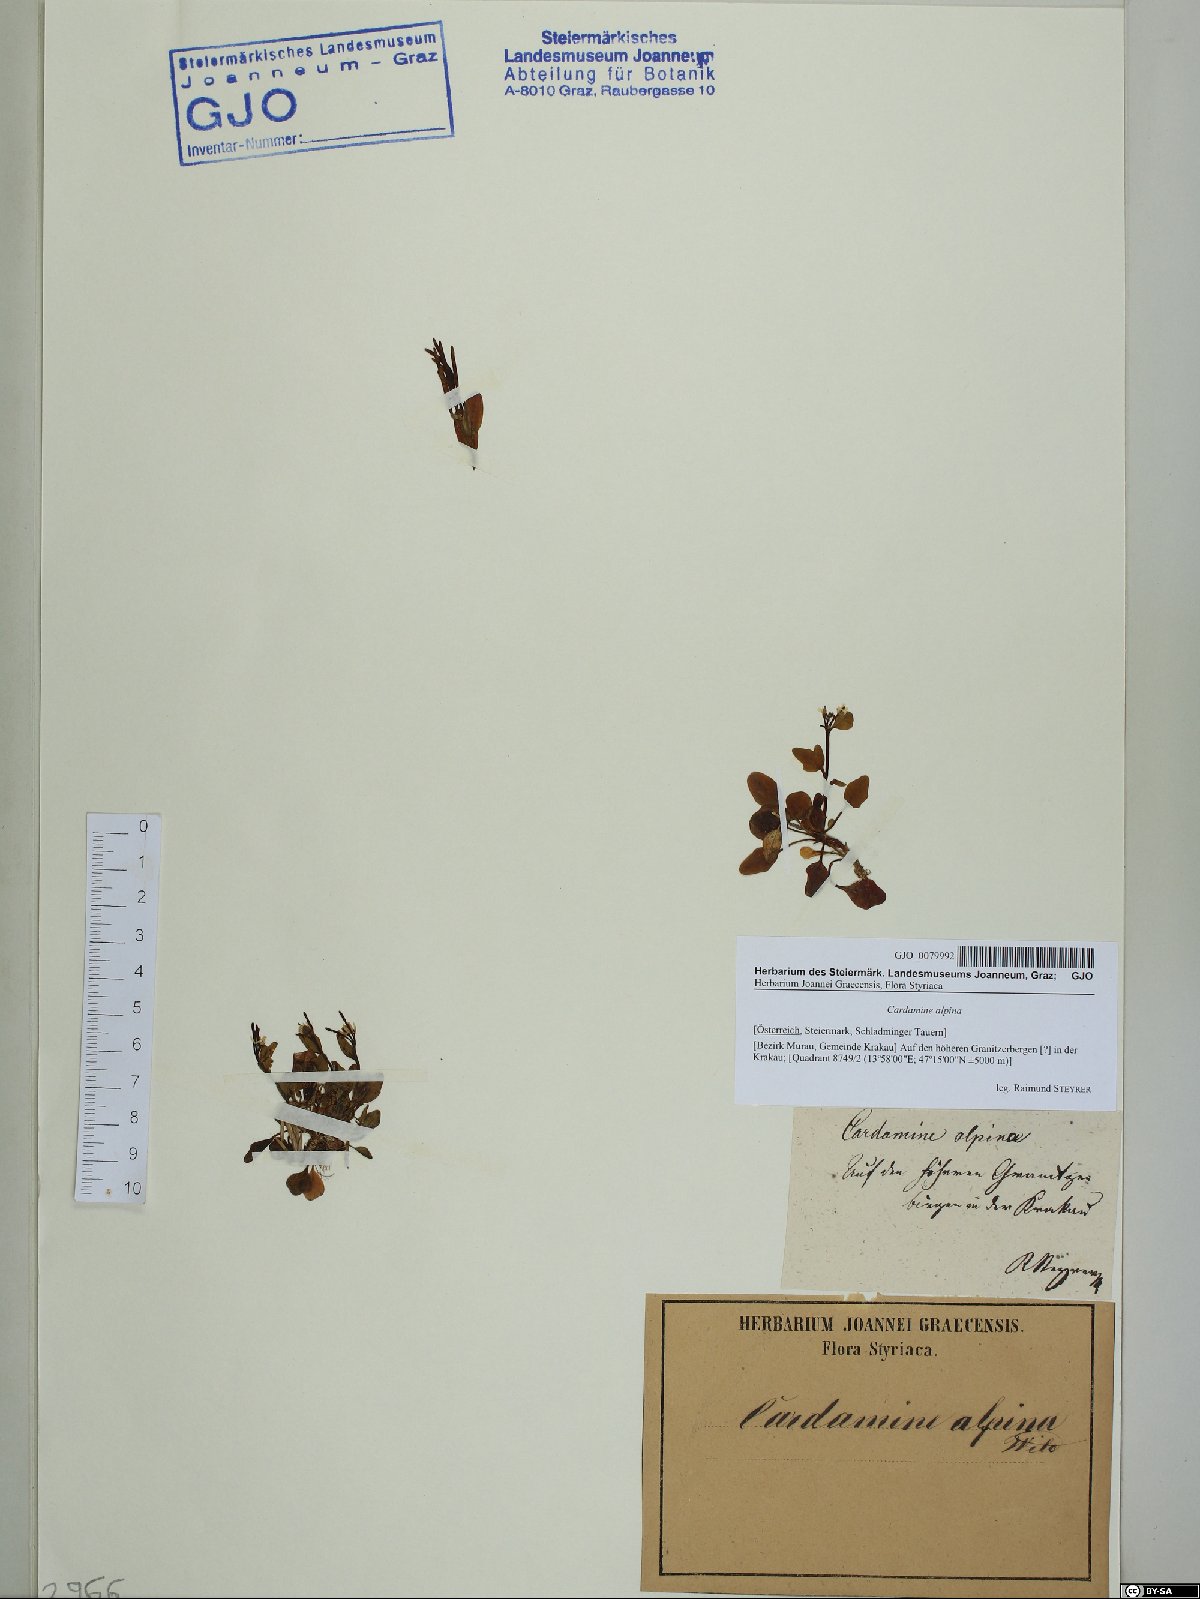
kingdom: Plantae
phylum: Tracheophyta
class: Magnoliopsida
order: Brassicales
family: Brassicaceae
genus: Cardamine
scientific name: Cardamine bellidifolia
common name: Alpine bittercress
